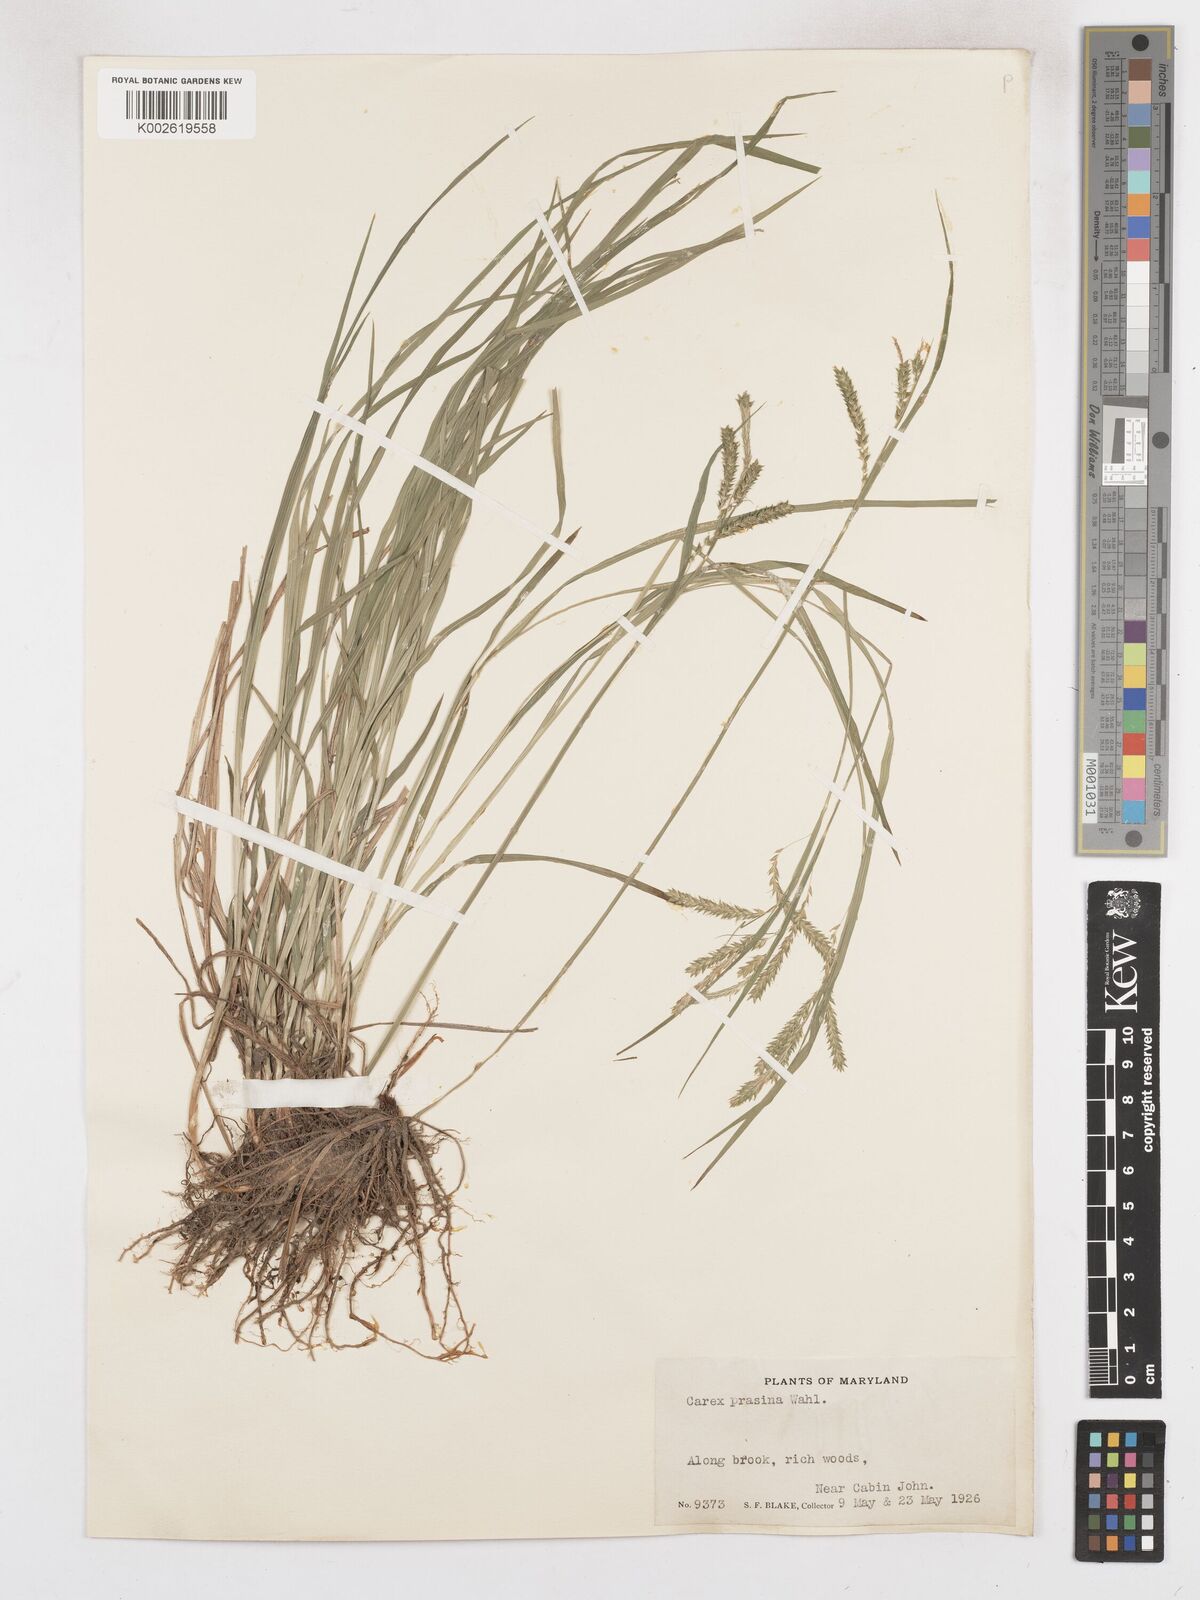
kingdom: Plantae
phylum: Tracheophyta
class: Liliopsida
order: Poales
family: Cyperaceae
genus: Carex
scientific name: Carex prasina
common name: Drooping sedge
